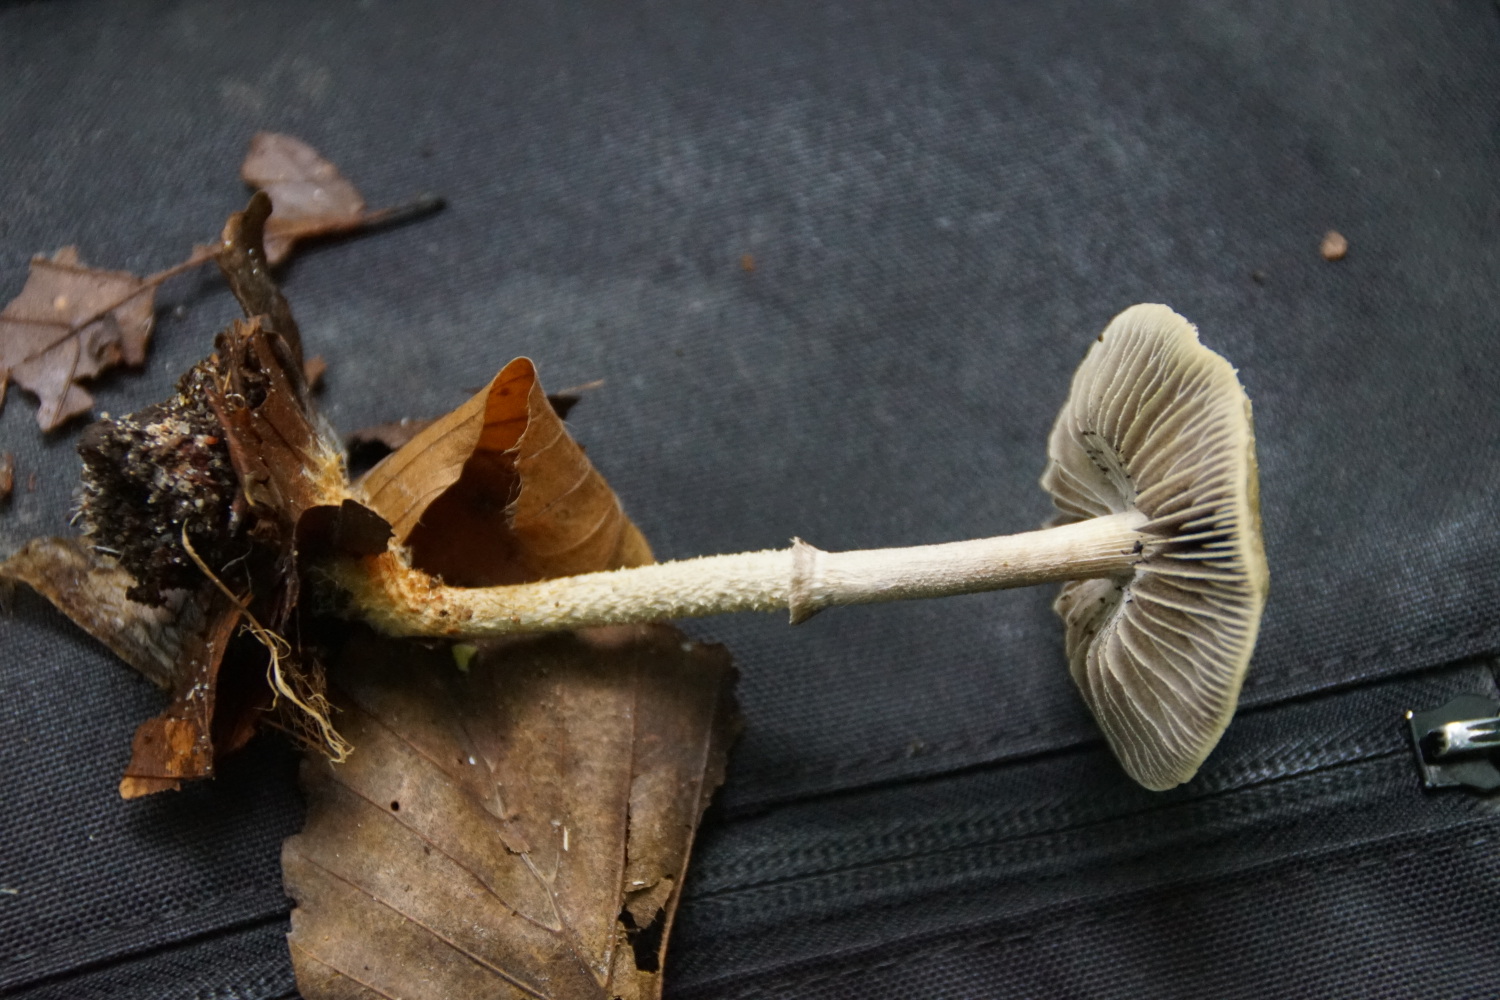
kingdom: Fungi
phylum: Basidiomycota
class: Agaricomycetes
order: Agaricales
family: Strophariaceae
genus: Leratiomyces
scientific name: Leratiomyces squamosus
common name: skællet bredblad
